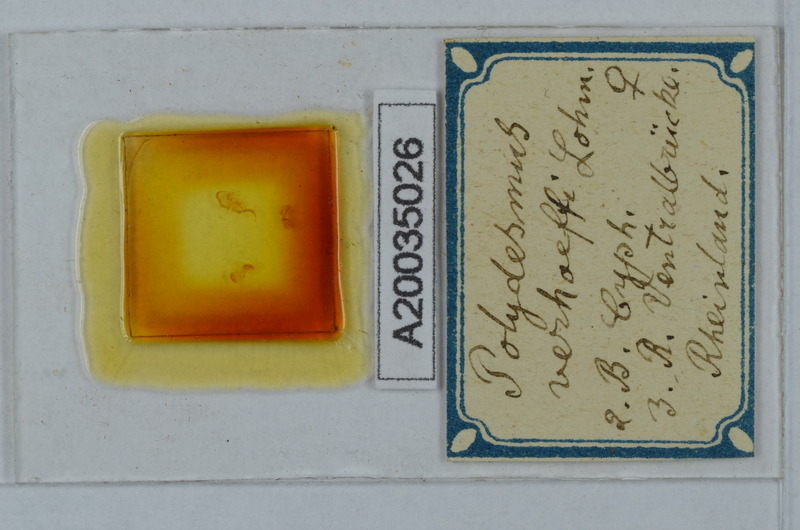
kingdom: Animalia
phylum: Arthropoda
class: Diplopoda
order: Polydesmida
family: Polydesmidae
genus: Polydesmus
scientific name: Polydesmus angustus
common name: Flat millipede
